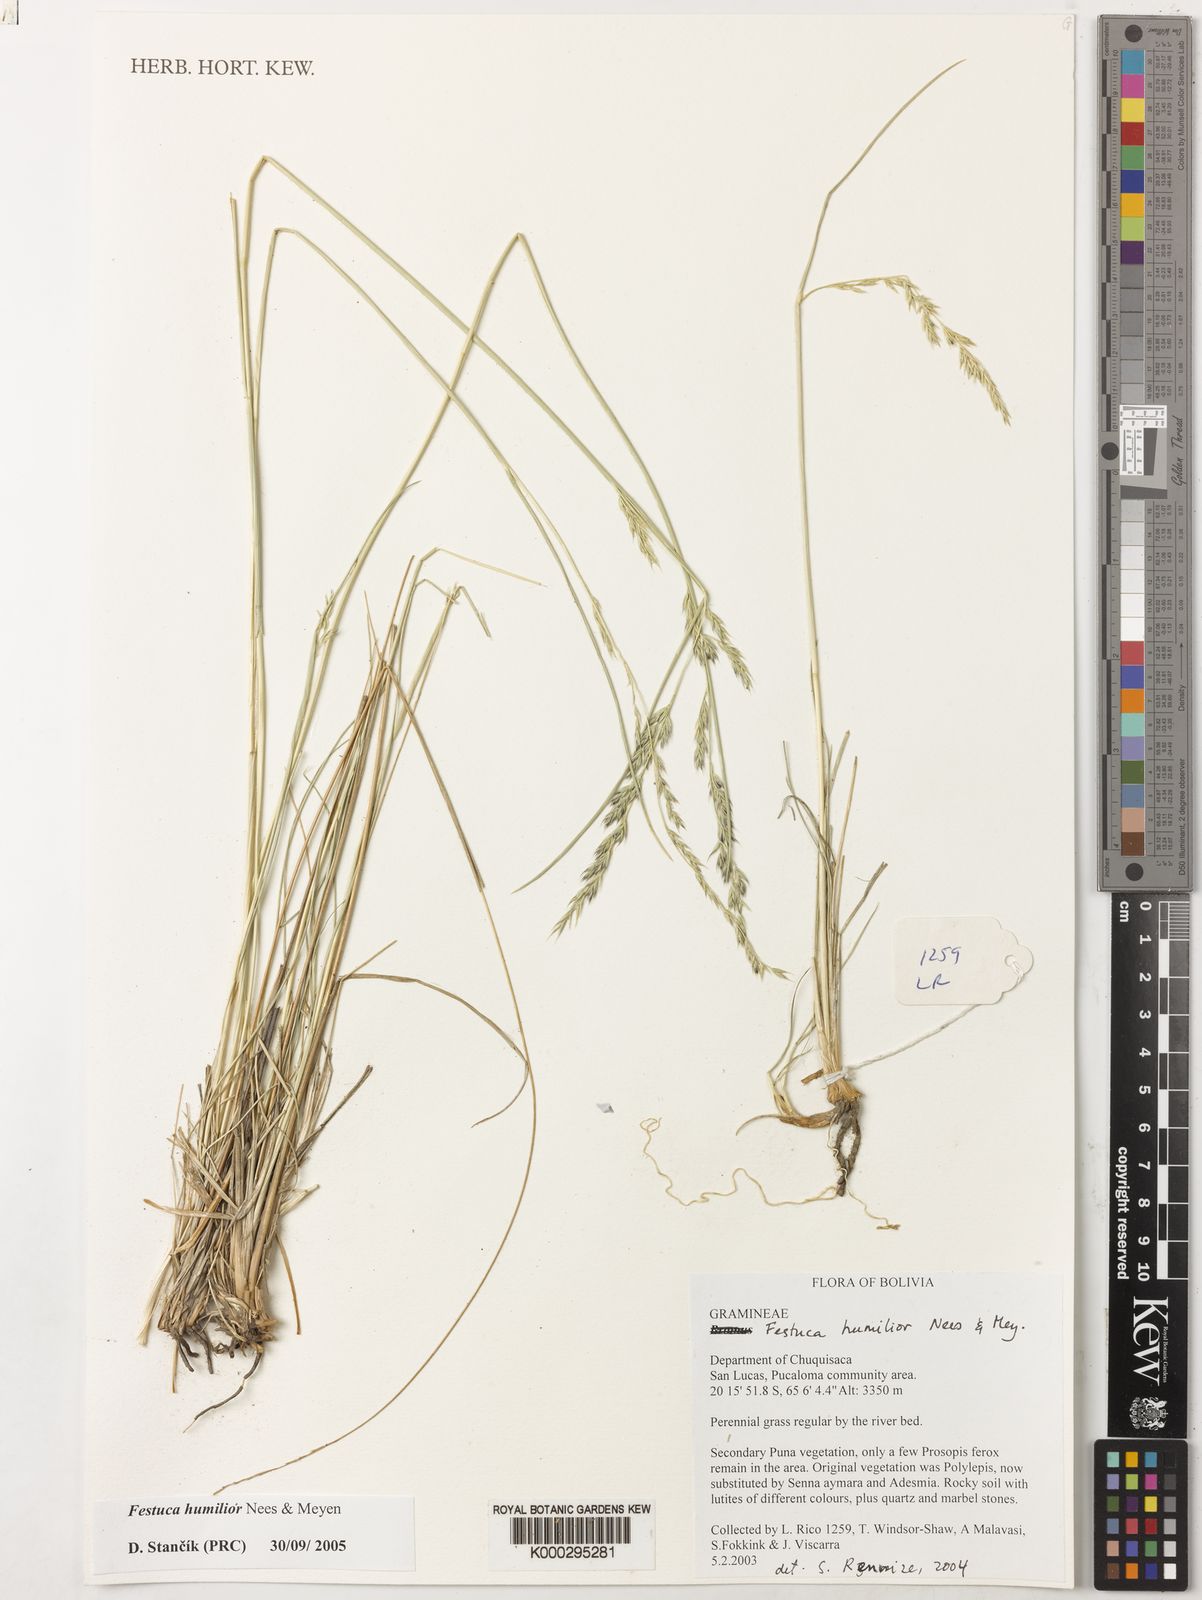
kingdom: Plantae
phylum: Tracheophyta
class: Liliopsida
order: Poales
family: Poaceae
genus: Festuca
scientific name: Festuca humilior
